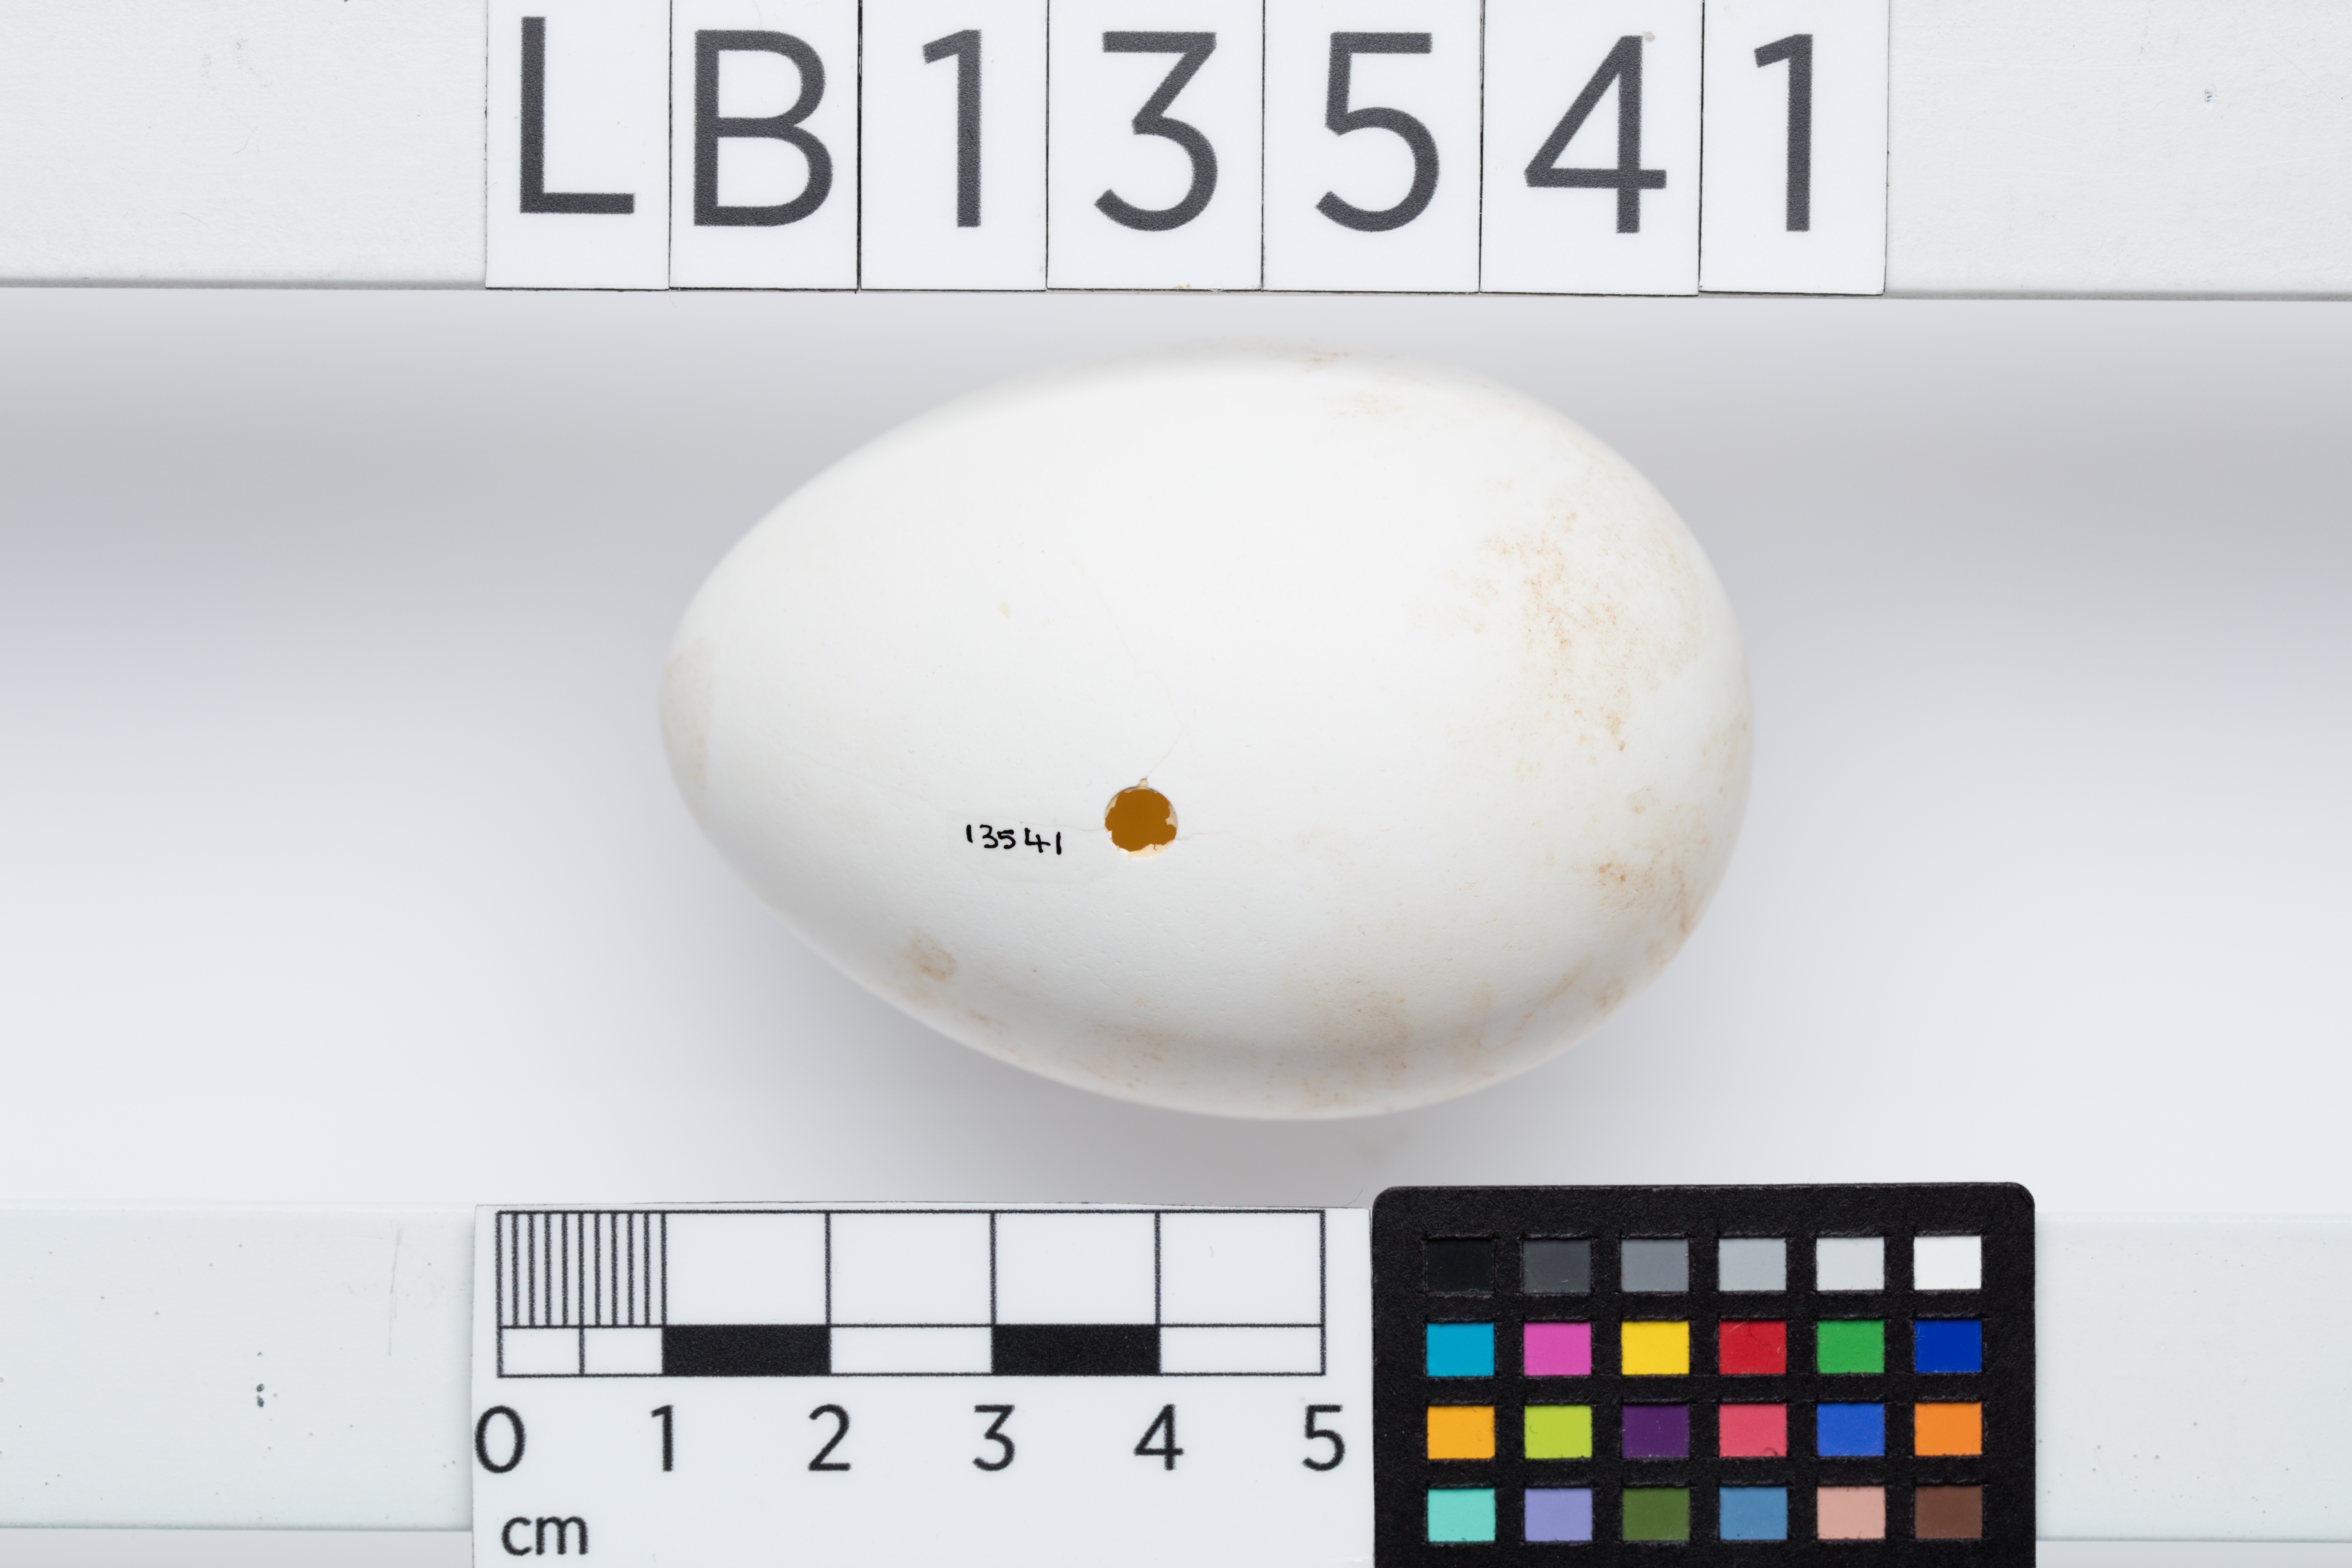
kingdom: Animalia
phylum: Chordata
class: Aves
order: Procellariiformes
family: Procellariidae
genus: Pterodroma
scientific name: Pterodroma macroptera
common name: Great-winged petrel
